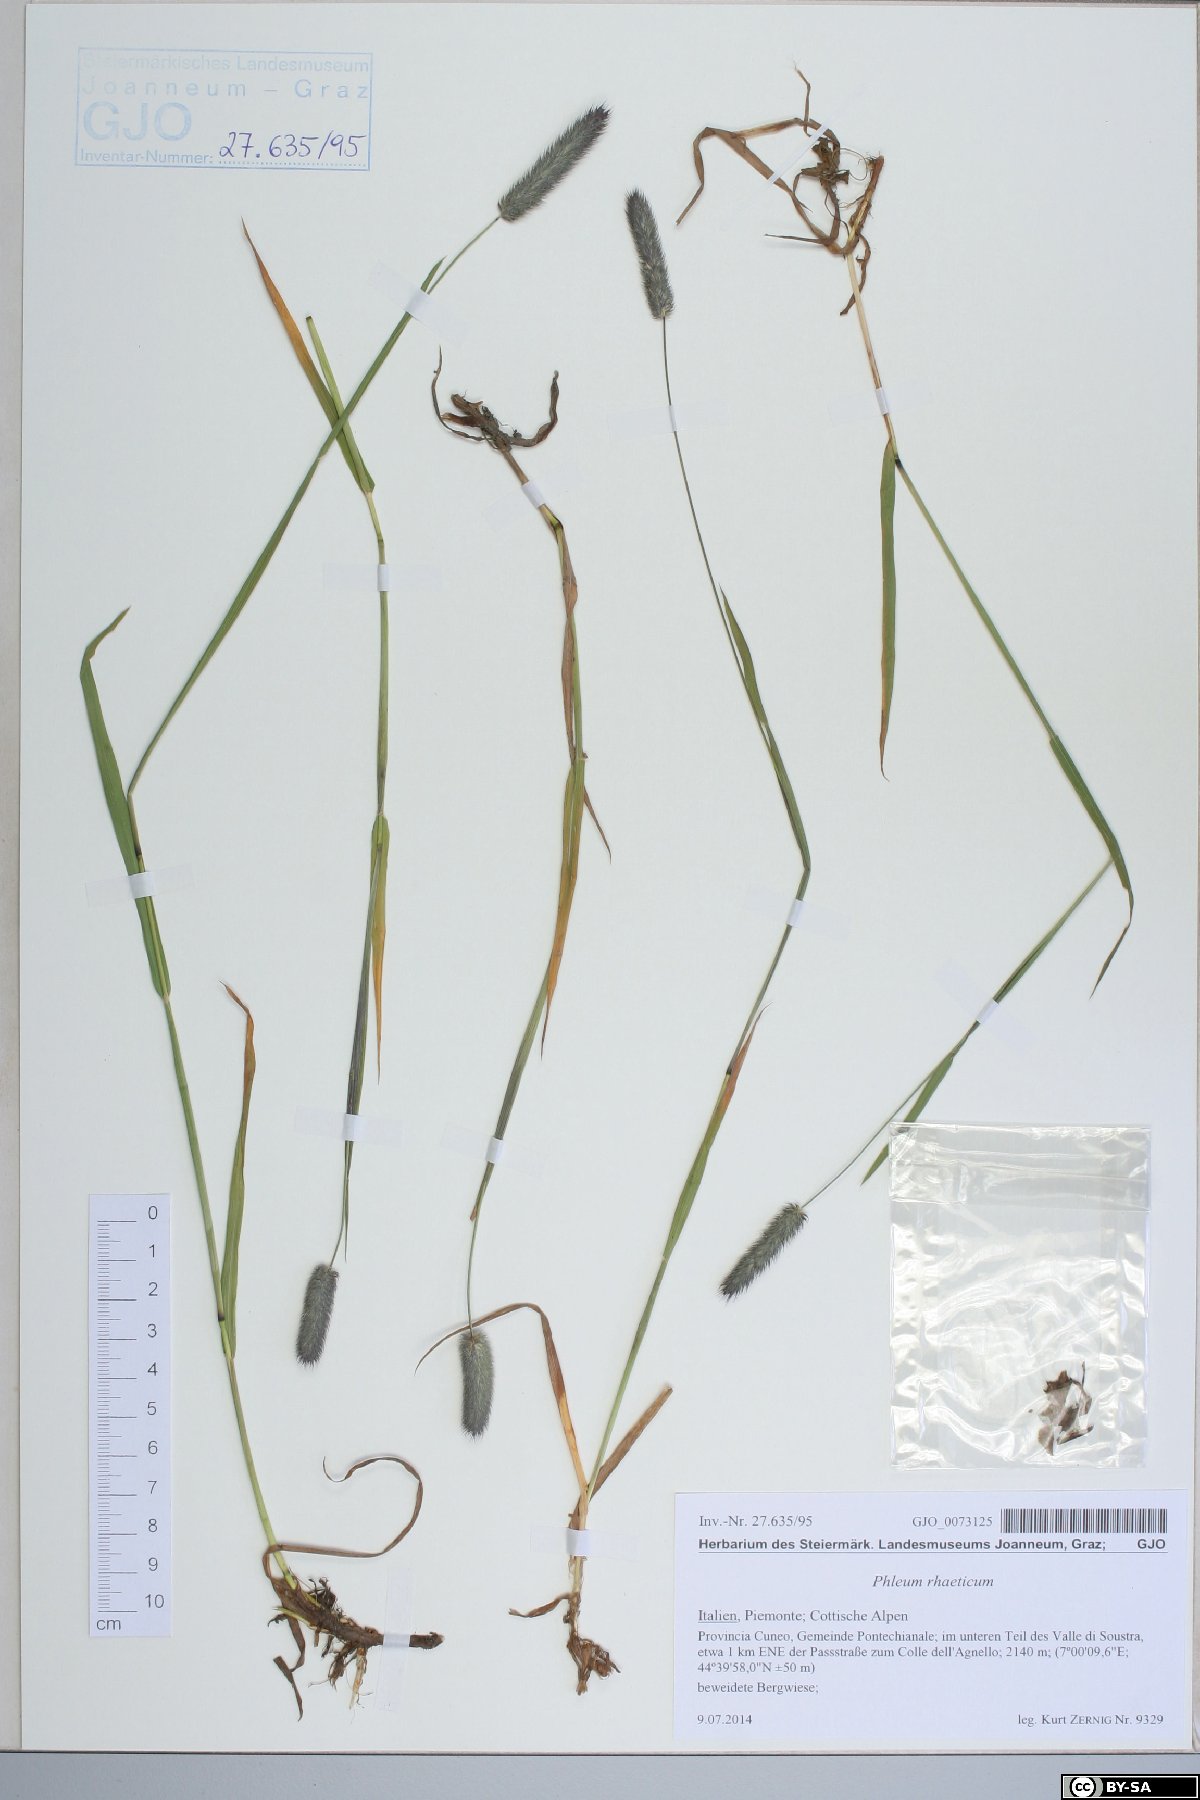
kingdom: Plantae
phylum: Tracheophyta
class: Liliopsida
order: Poales
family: Poaceae
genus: Phleum
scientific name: Phleum alpinum
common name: Alpine cat's-tail
